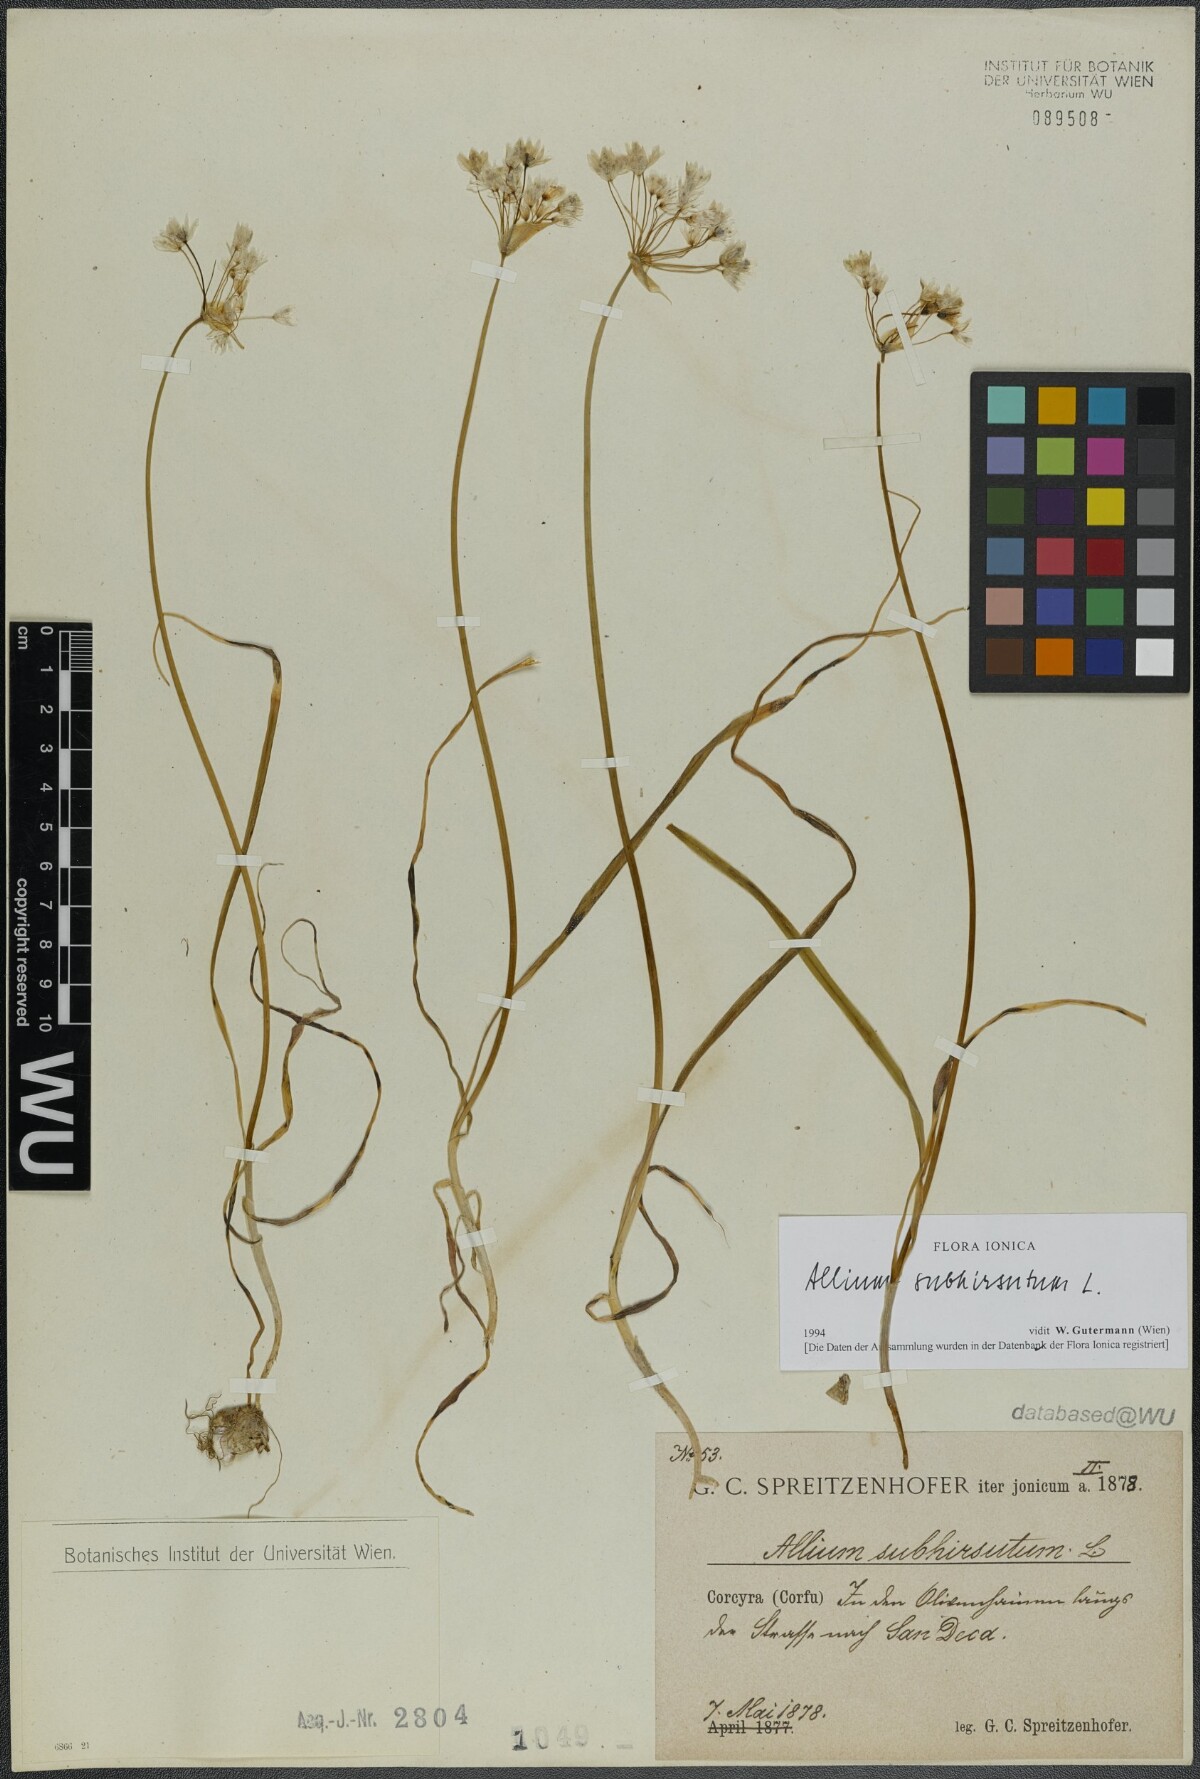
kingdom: Plantae
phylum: Tracheophyta
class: Liliopsida
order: Asparagales
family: Amaryllidaceae
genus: Allium
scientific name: Allium subhirsutum
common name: Hairy garlic
